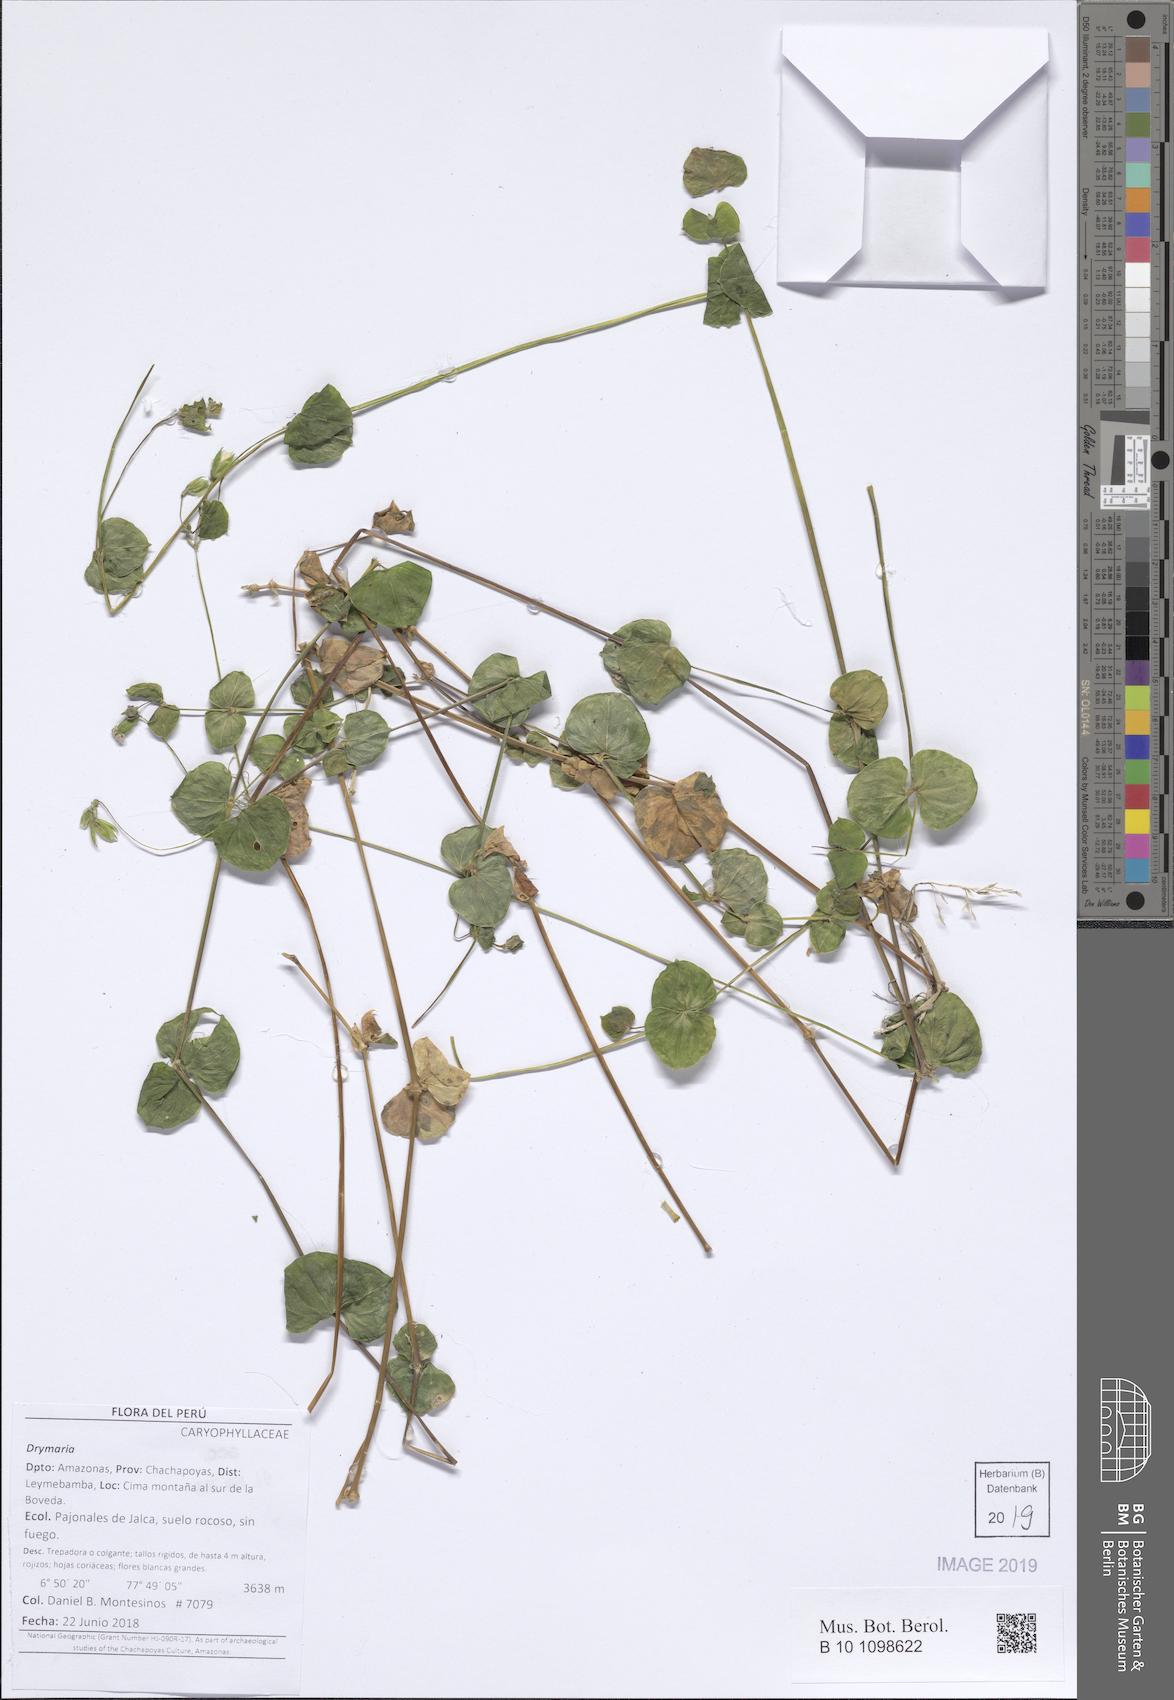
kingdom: Plantae
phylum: Tracheophyta
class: Magnoliopsida
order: Caryophyllales
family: Caryophyllaceae
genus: Drymaria
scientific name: Drymaria
